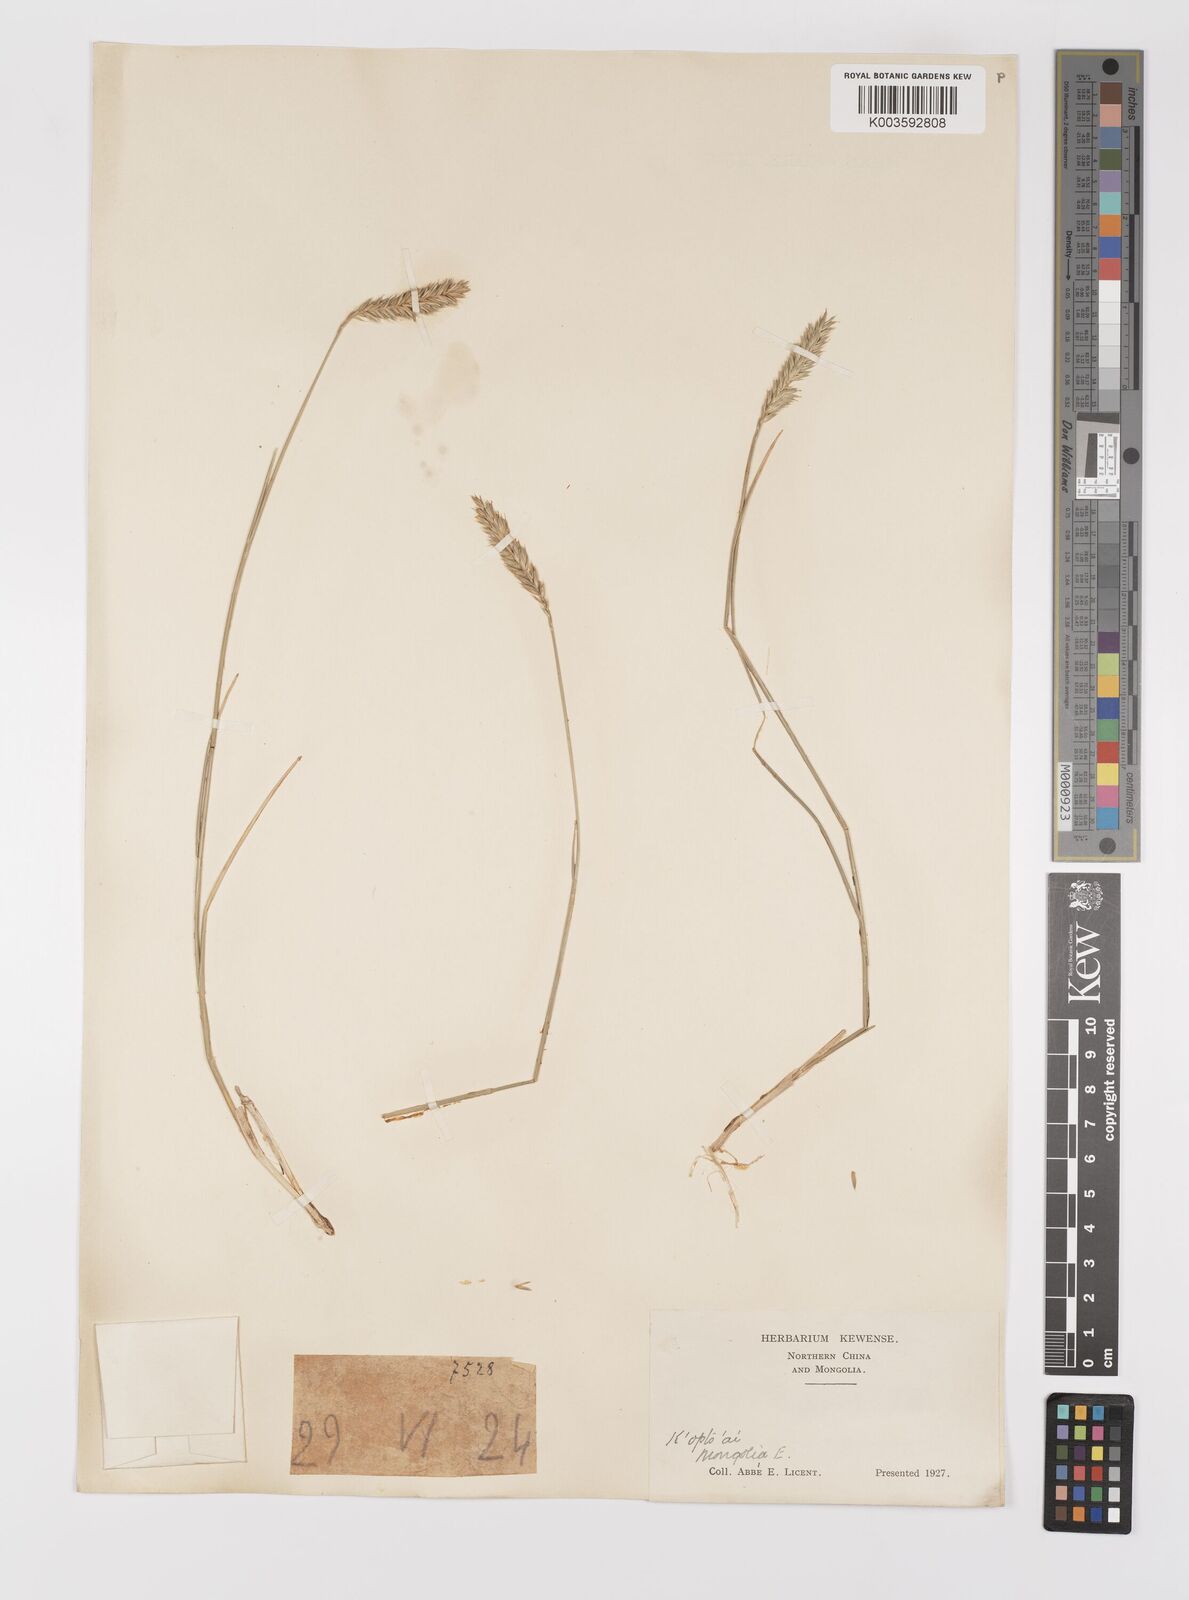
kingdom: Plantae
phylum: Tracheophyta
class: Liliopsida
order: Poales
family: Poaceae
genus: Agropyron
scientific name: Agropyron cristatum
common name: Crested wheatgrass
